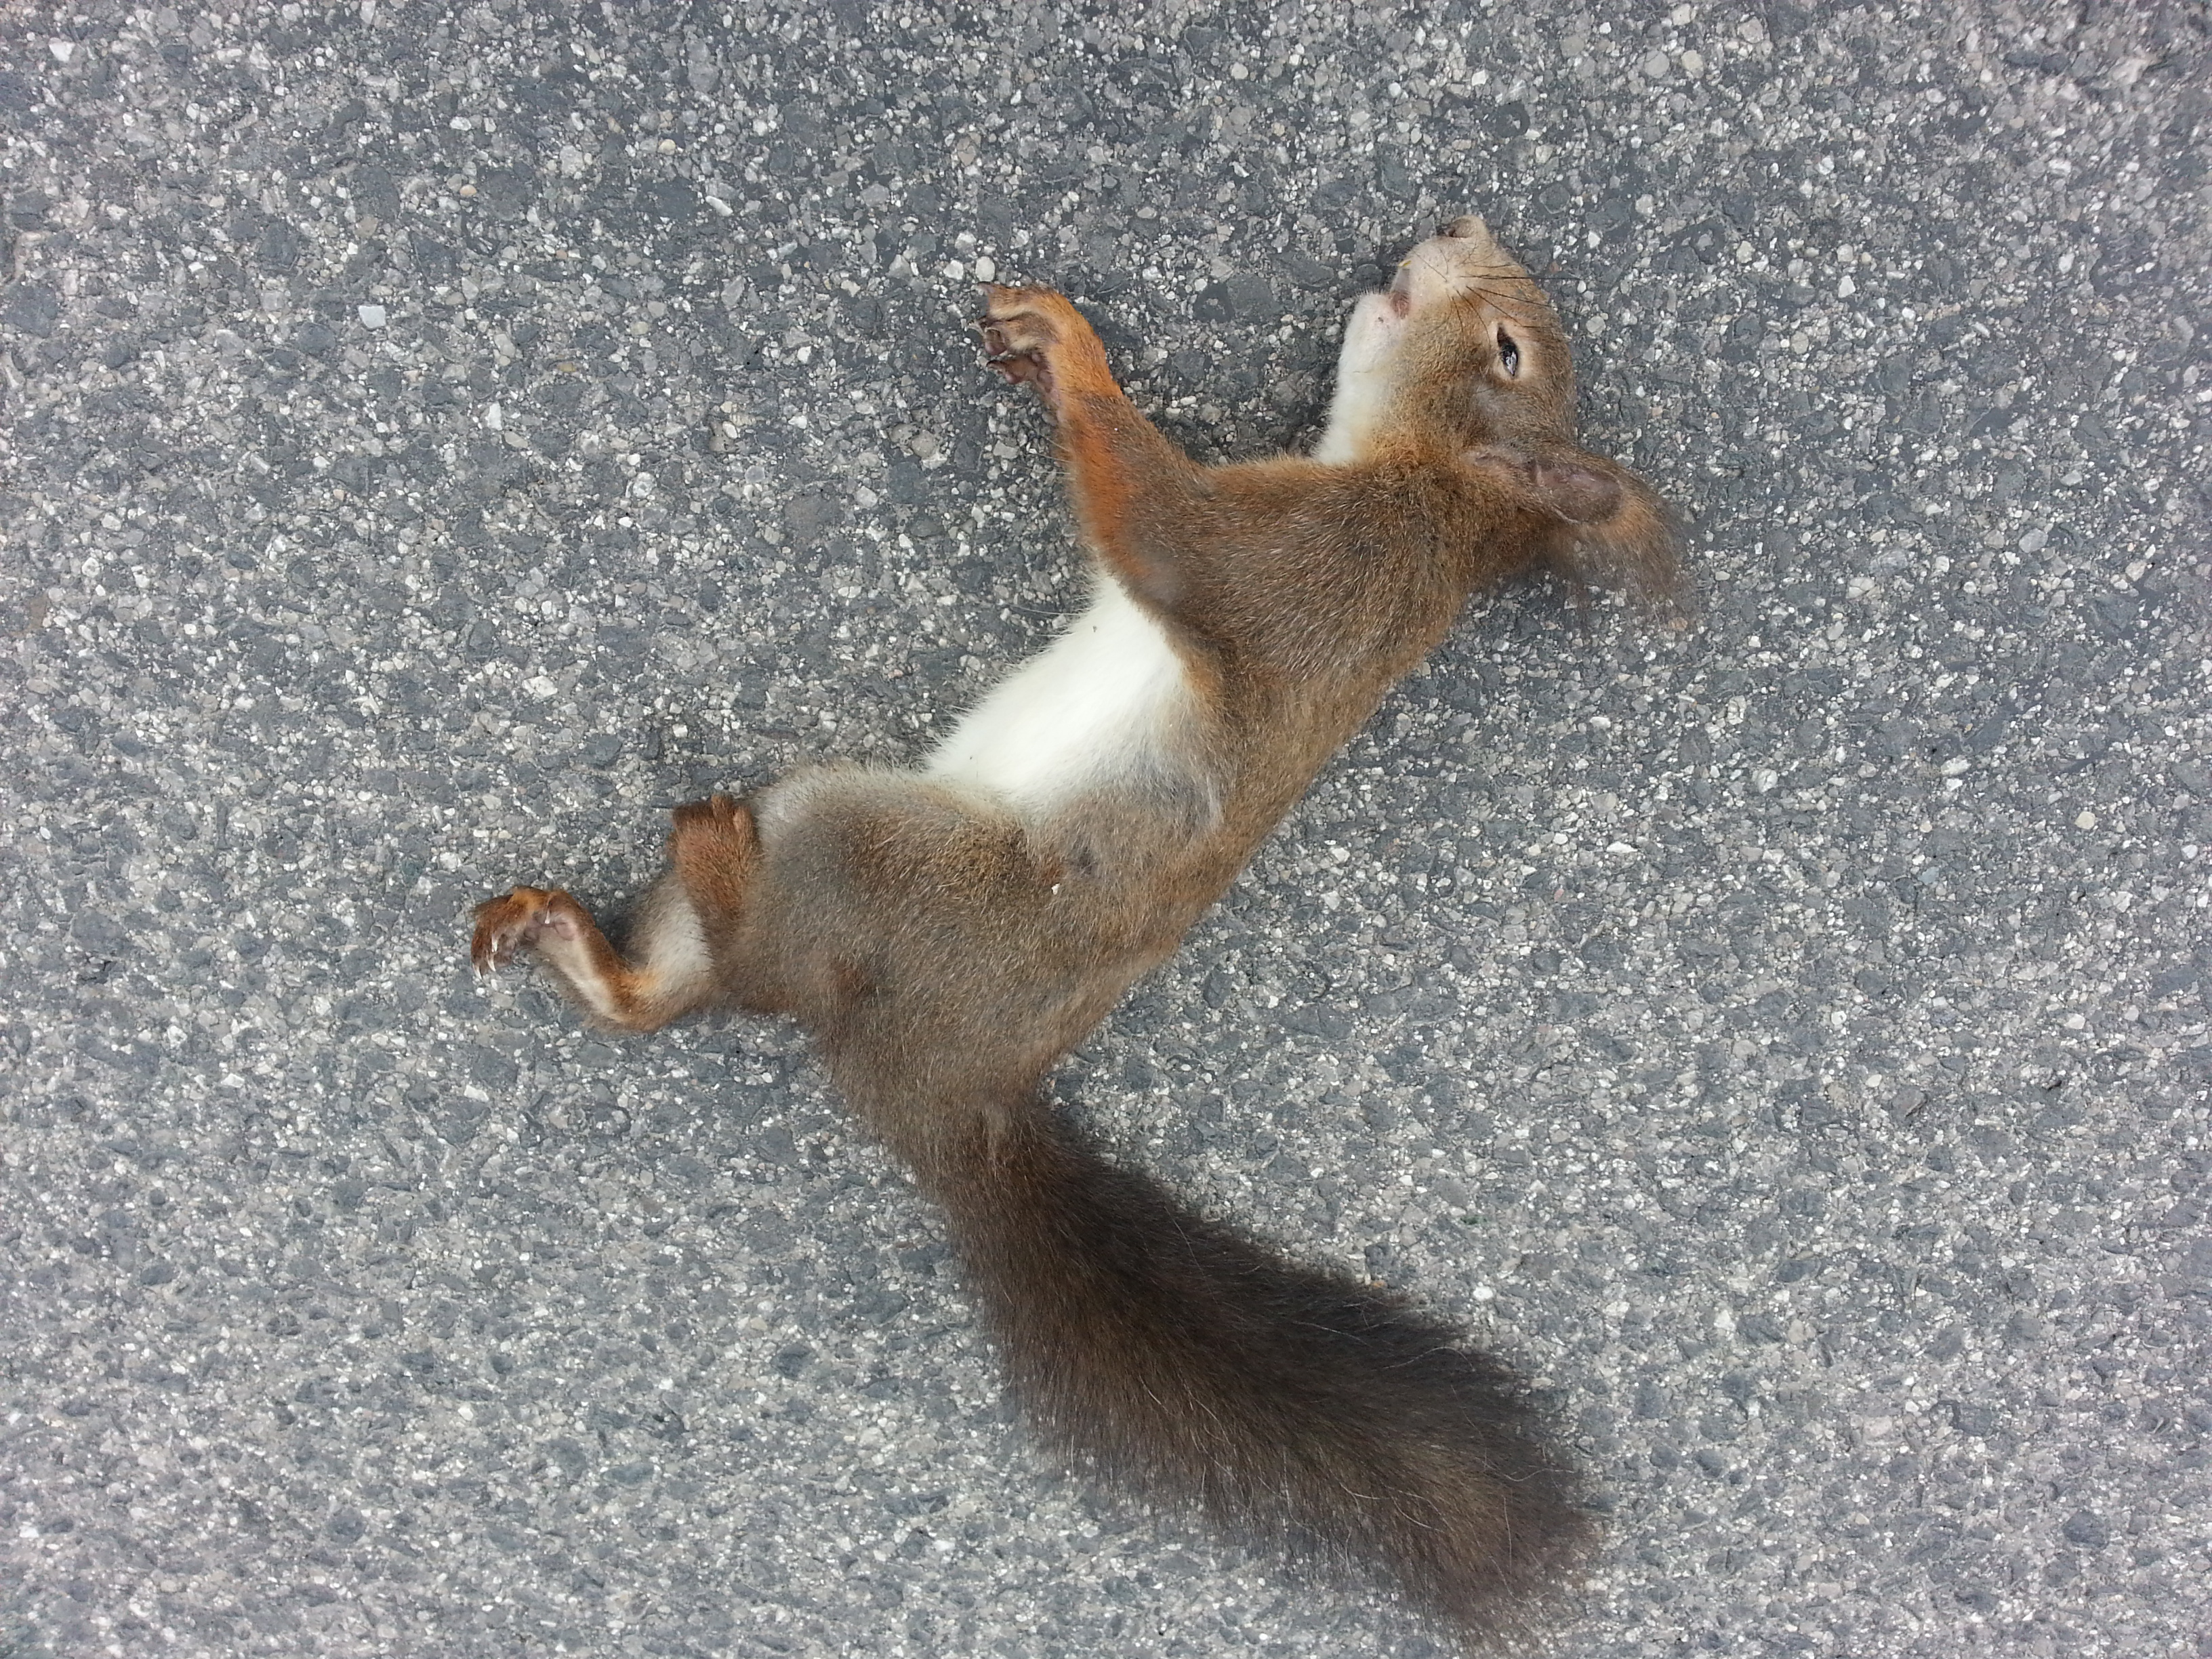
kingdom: Animalia
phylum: Chordata
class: Mammalia
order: Rodentia
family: Sciuridae
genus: Sciurus
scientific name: Sciurus vulgaris
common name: Eurasian red squirrel
